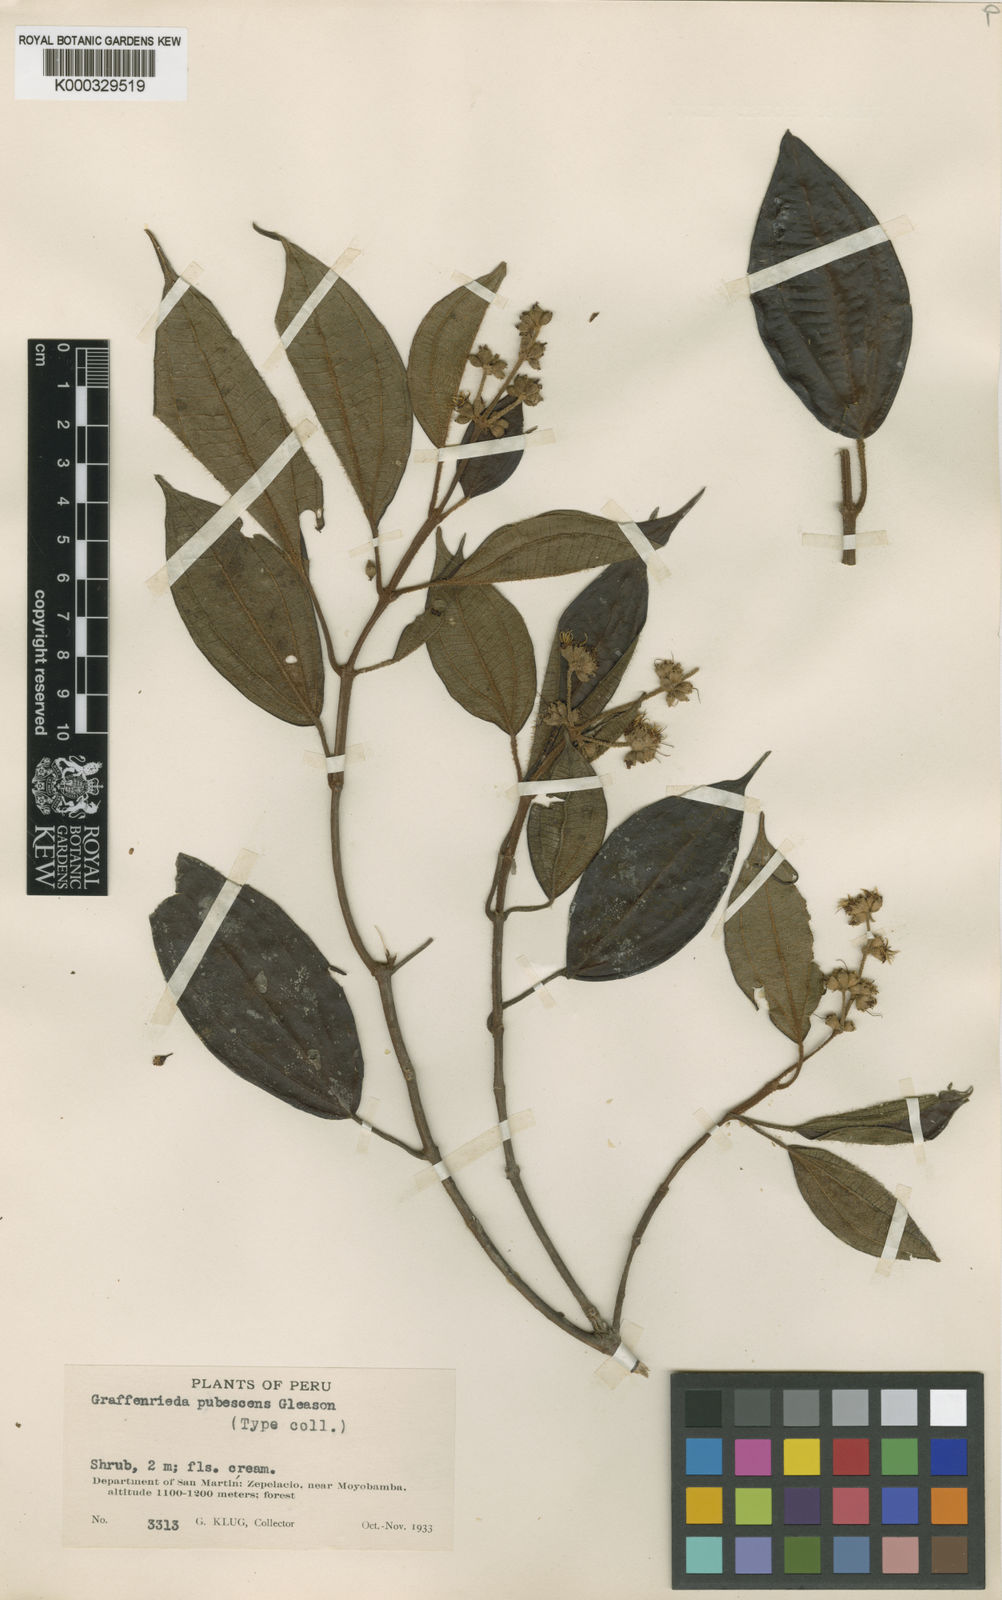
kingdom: Plantae
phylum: Tracheophyta
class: Magnoliopsida
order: Myrtales
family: Melastomataceae
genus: Graffenrieda
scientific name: Graffenrieda
